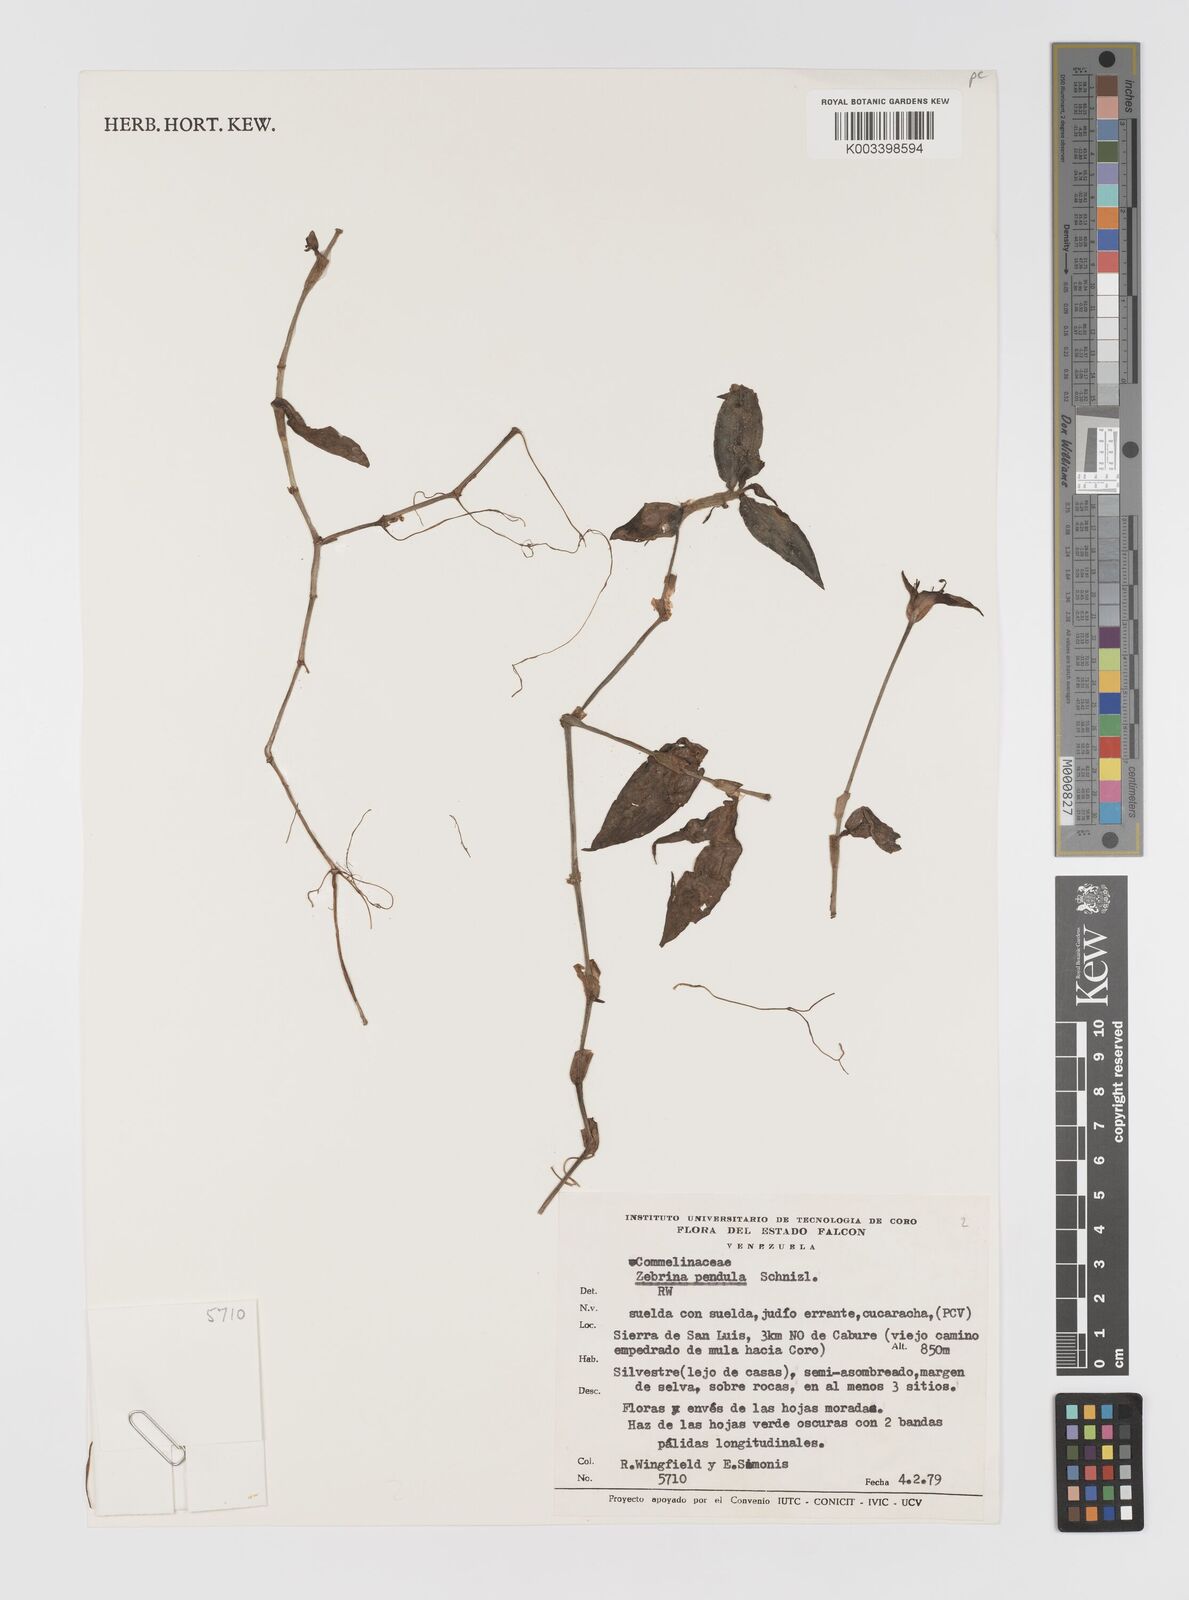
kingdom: Plantae
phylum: Tracheophyta
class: Liliopsida
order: Commelinales
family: Commelinaceae
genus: Tradescantia
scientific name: Tradescantia zebrina
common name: Inchplant
